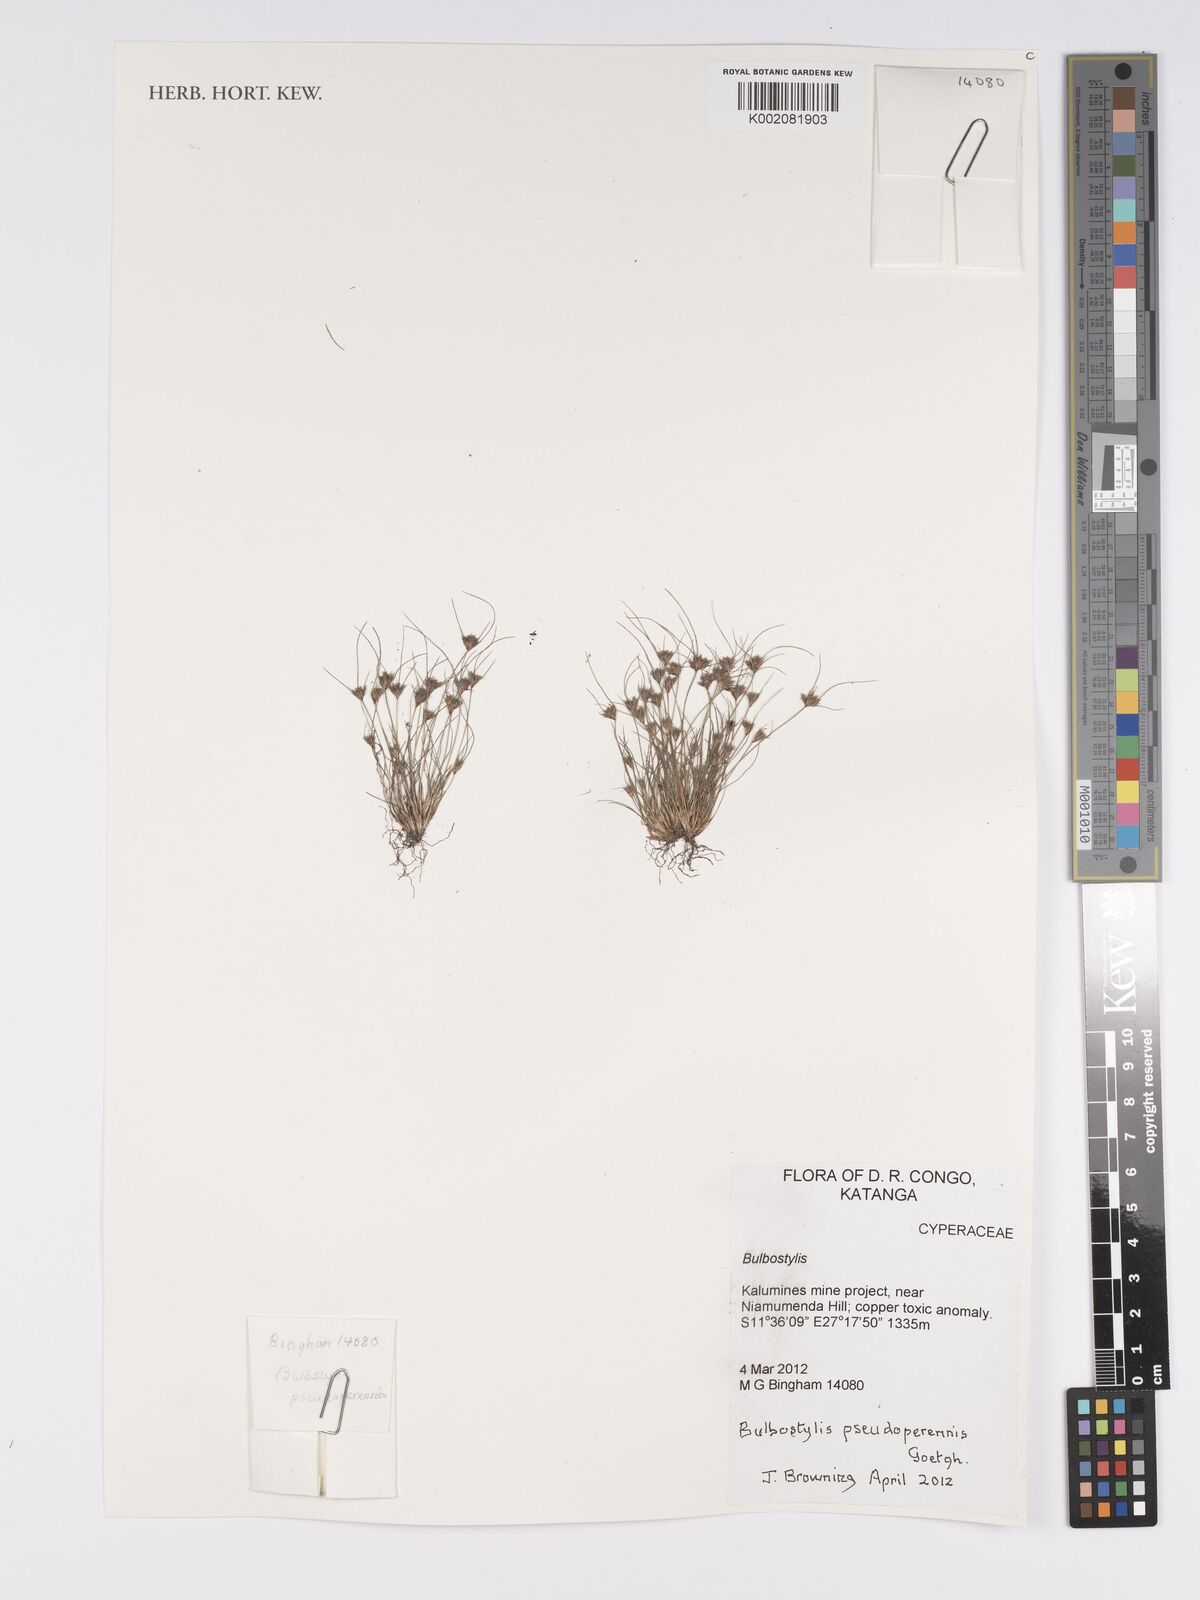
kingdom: Plantae
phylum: Tracheophyta
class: Liliopsida
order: Poales
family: Cyperaceae
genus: Bulbostylis
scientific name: Bulbostylis abbreviata
